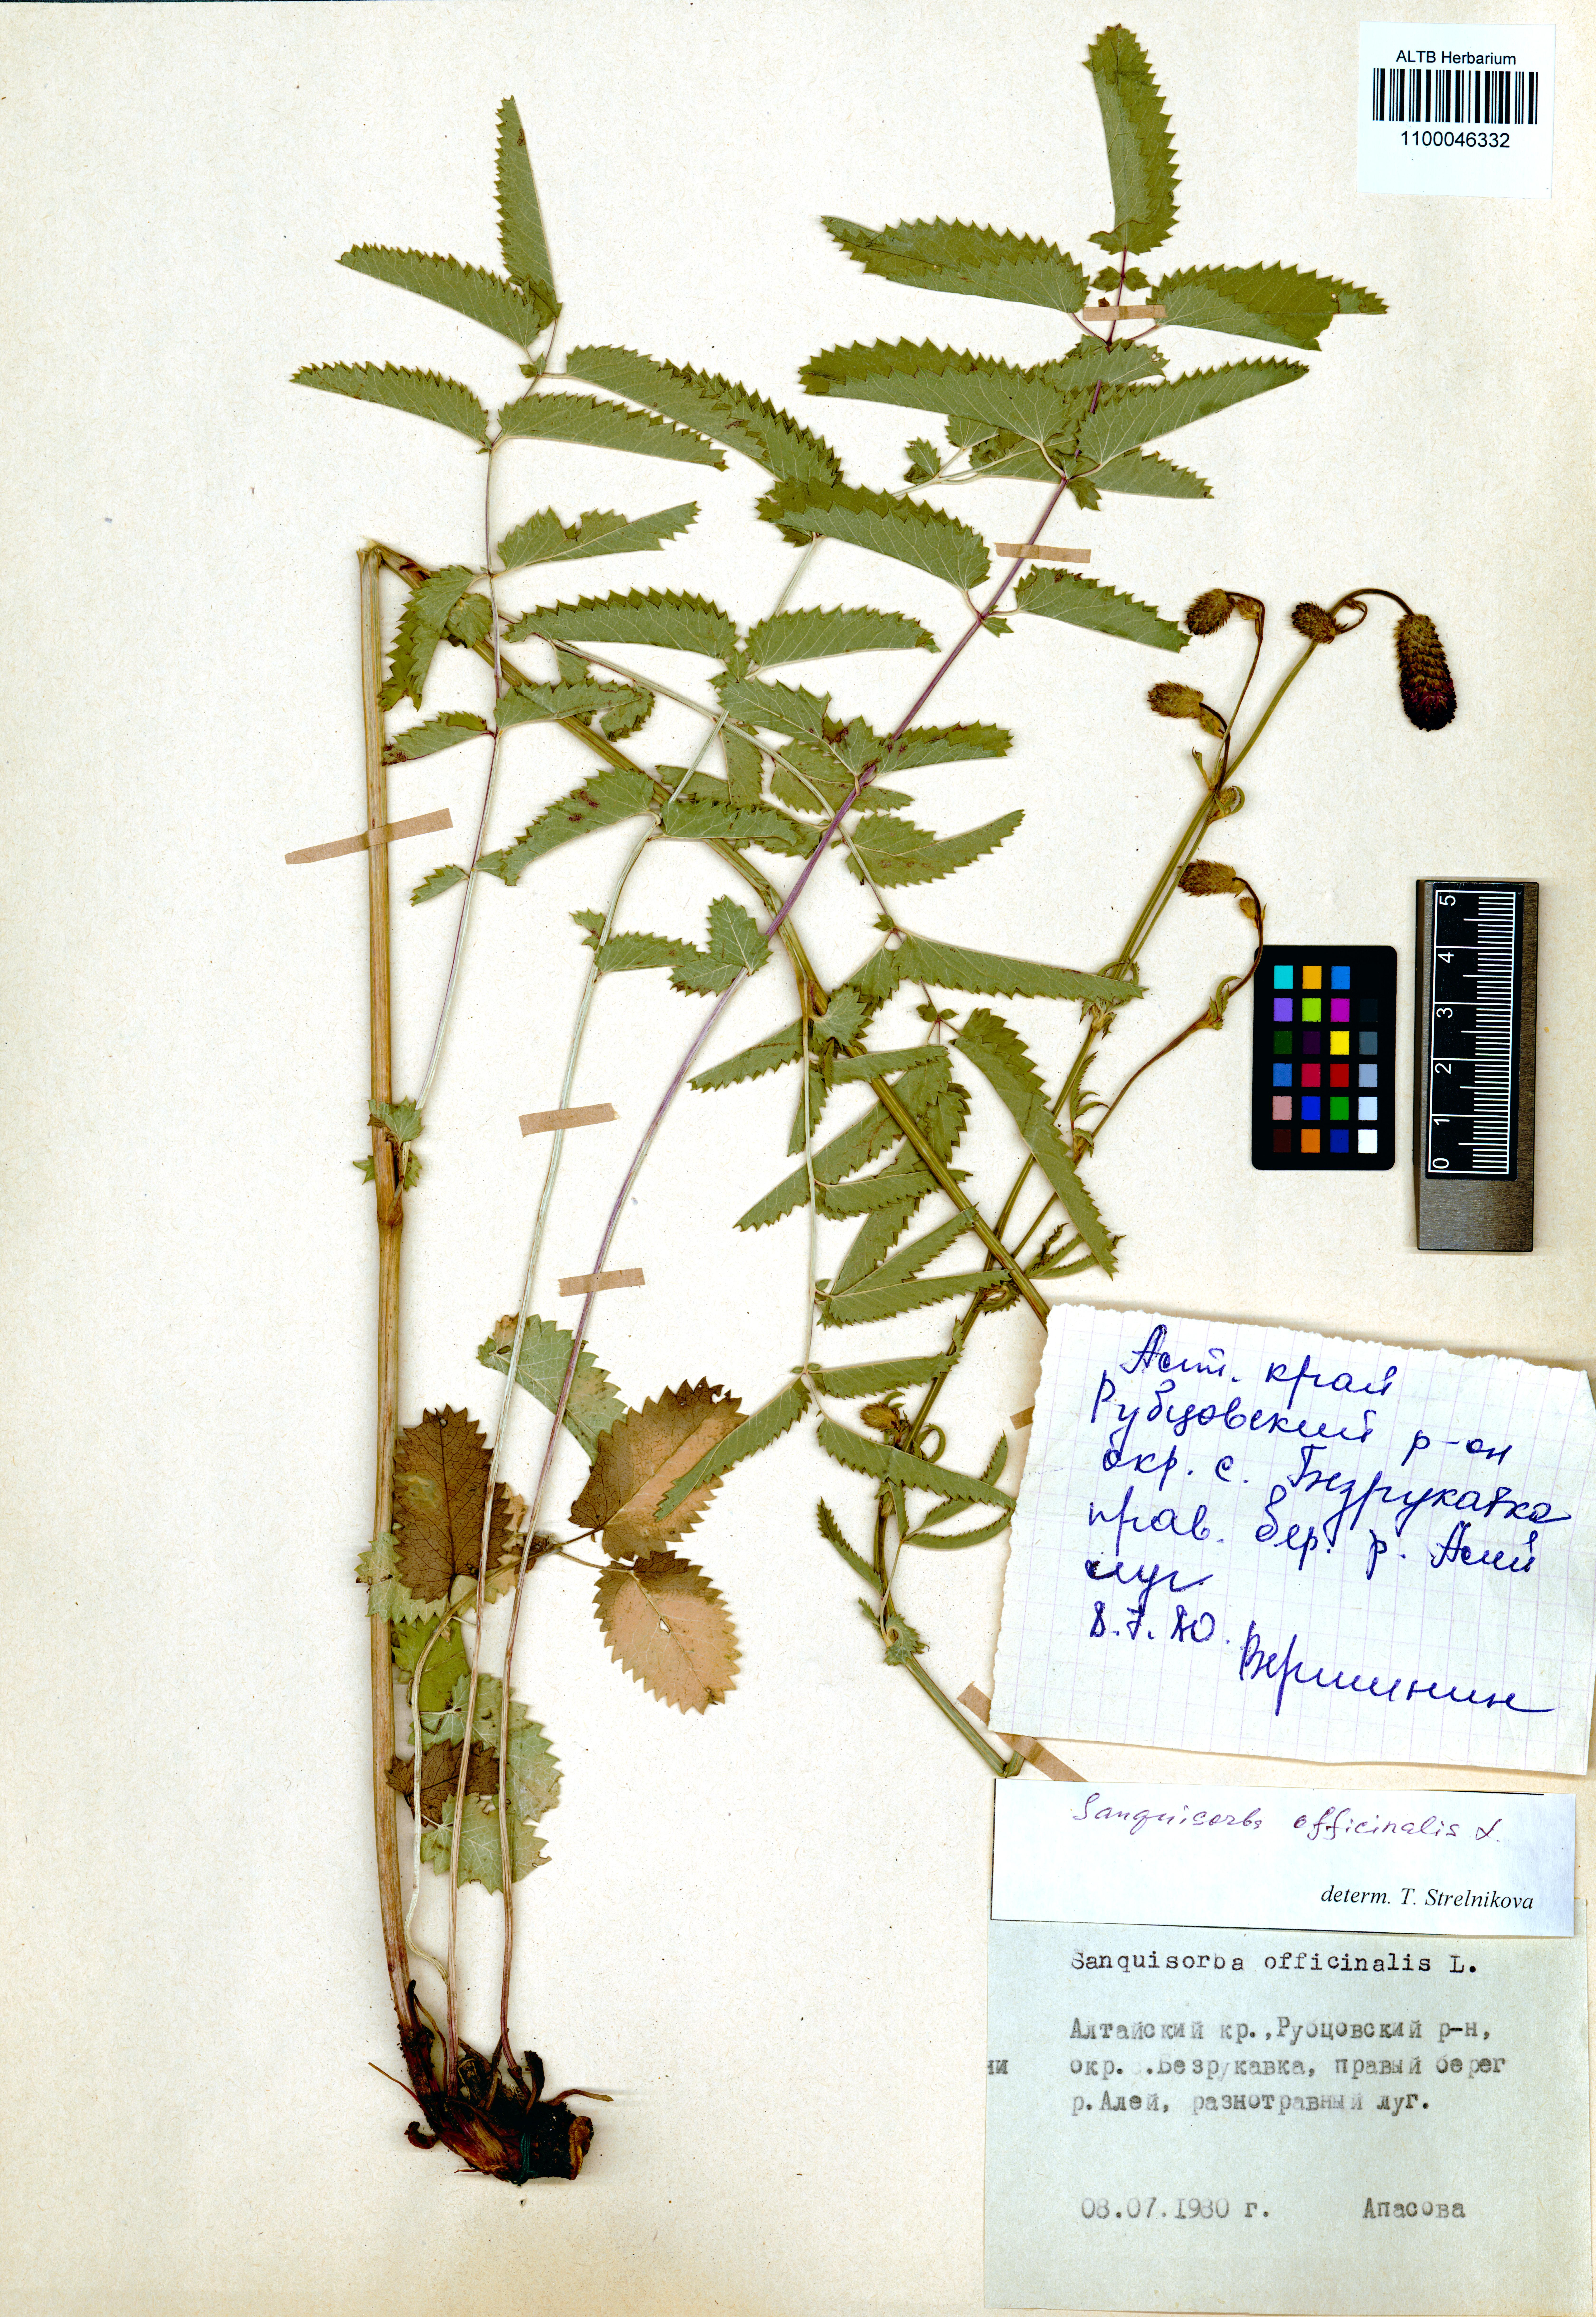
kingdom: Plantae
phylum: Tracheophyta
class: Magnoliopsida
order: Rosales
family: Rosaceae
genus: Sanguisorba
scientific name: Sanguisorba officinalis
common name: Great burnet
